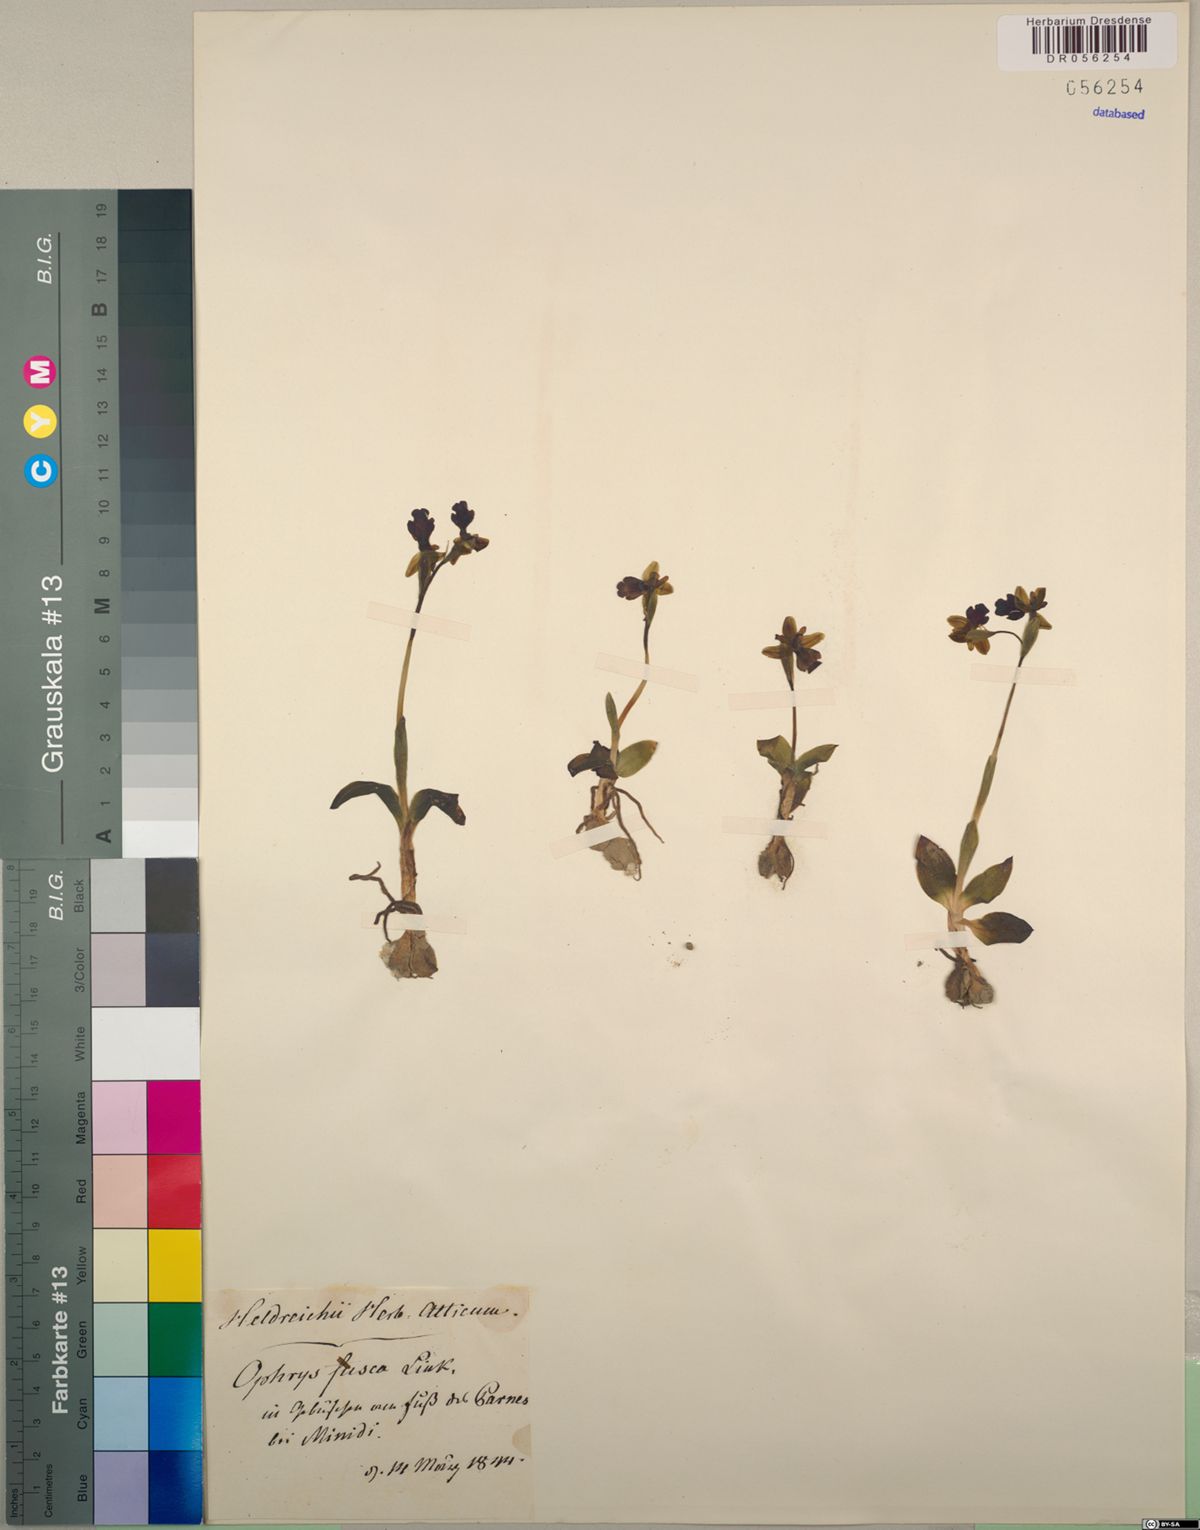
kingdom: Plantae
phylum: Tracheophyta
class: Liliopsida
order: Asparagales
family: Orchidaceae
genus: Ophrys
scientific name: Ophrys fusca
